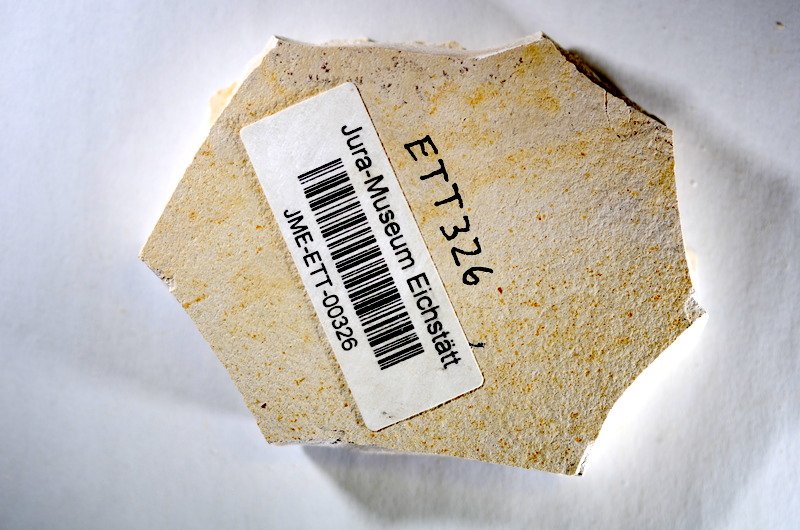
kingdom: Animalia
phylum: Chordata
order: Salmoniformes
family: Orthogonikleithridae
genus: Orthogonikleithrus
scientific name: Orthogonikleithrus hoelli
